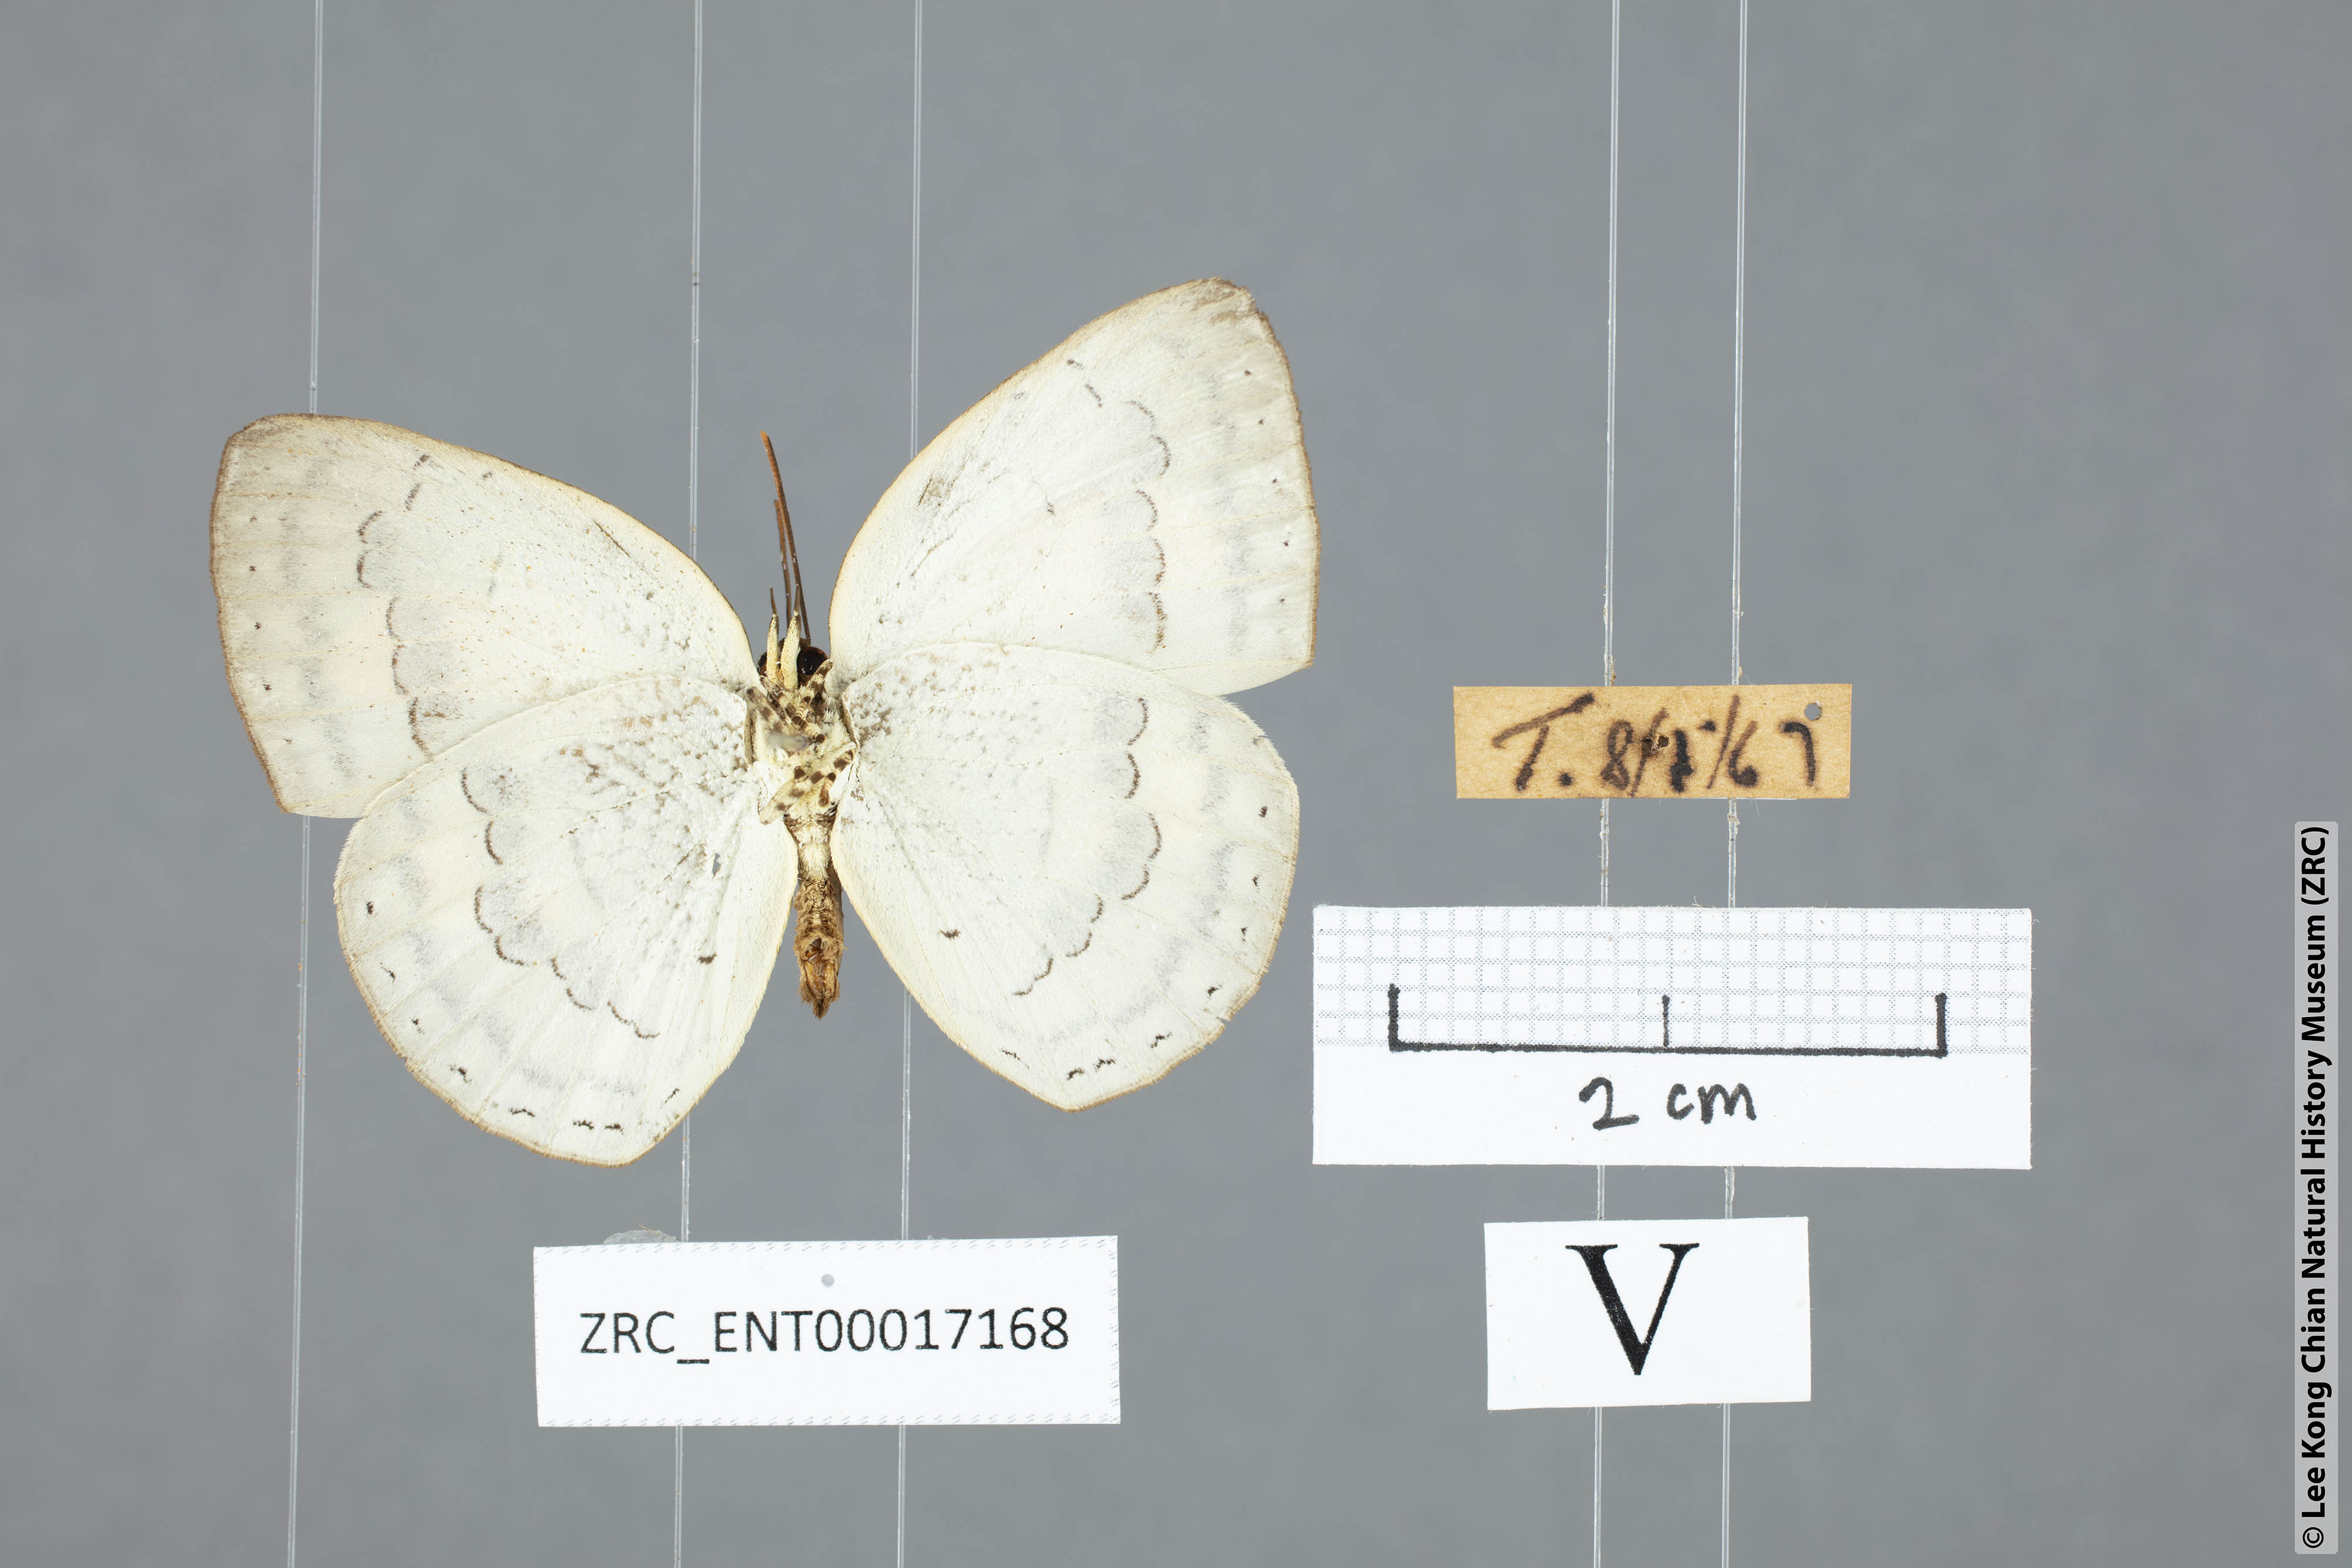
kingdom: Animalia
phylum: Arthropoda
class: Insecta
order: Lepidoptera
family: Lycaenidae
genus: Curetis
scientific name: Curetis tagalica
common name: Southern sunbeam
